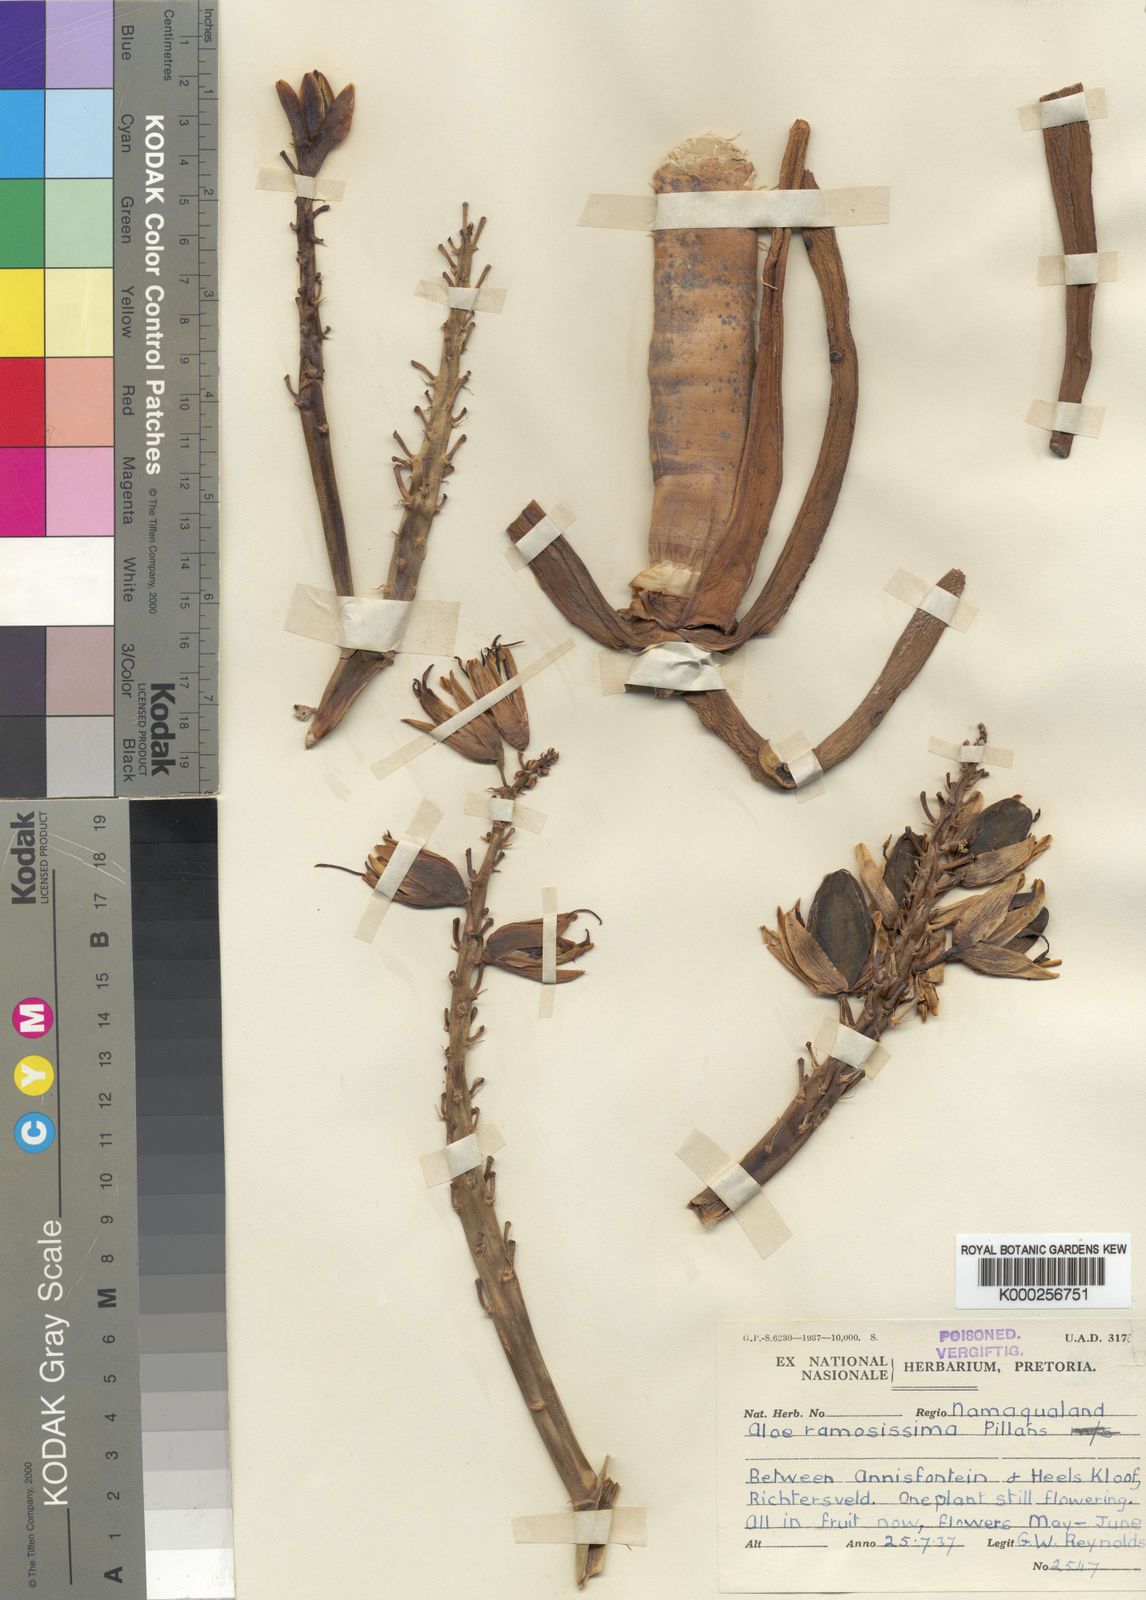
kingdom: Plantae
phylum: Tracheophyta
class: Liliopsida
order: Asparagales
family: Asphodelaceae
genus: Aloidendron
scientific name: Aloidendron ramosissimum
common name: Bush quiver tree
